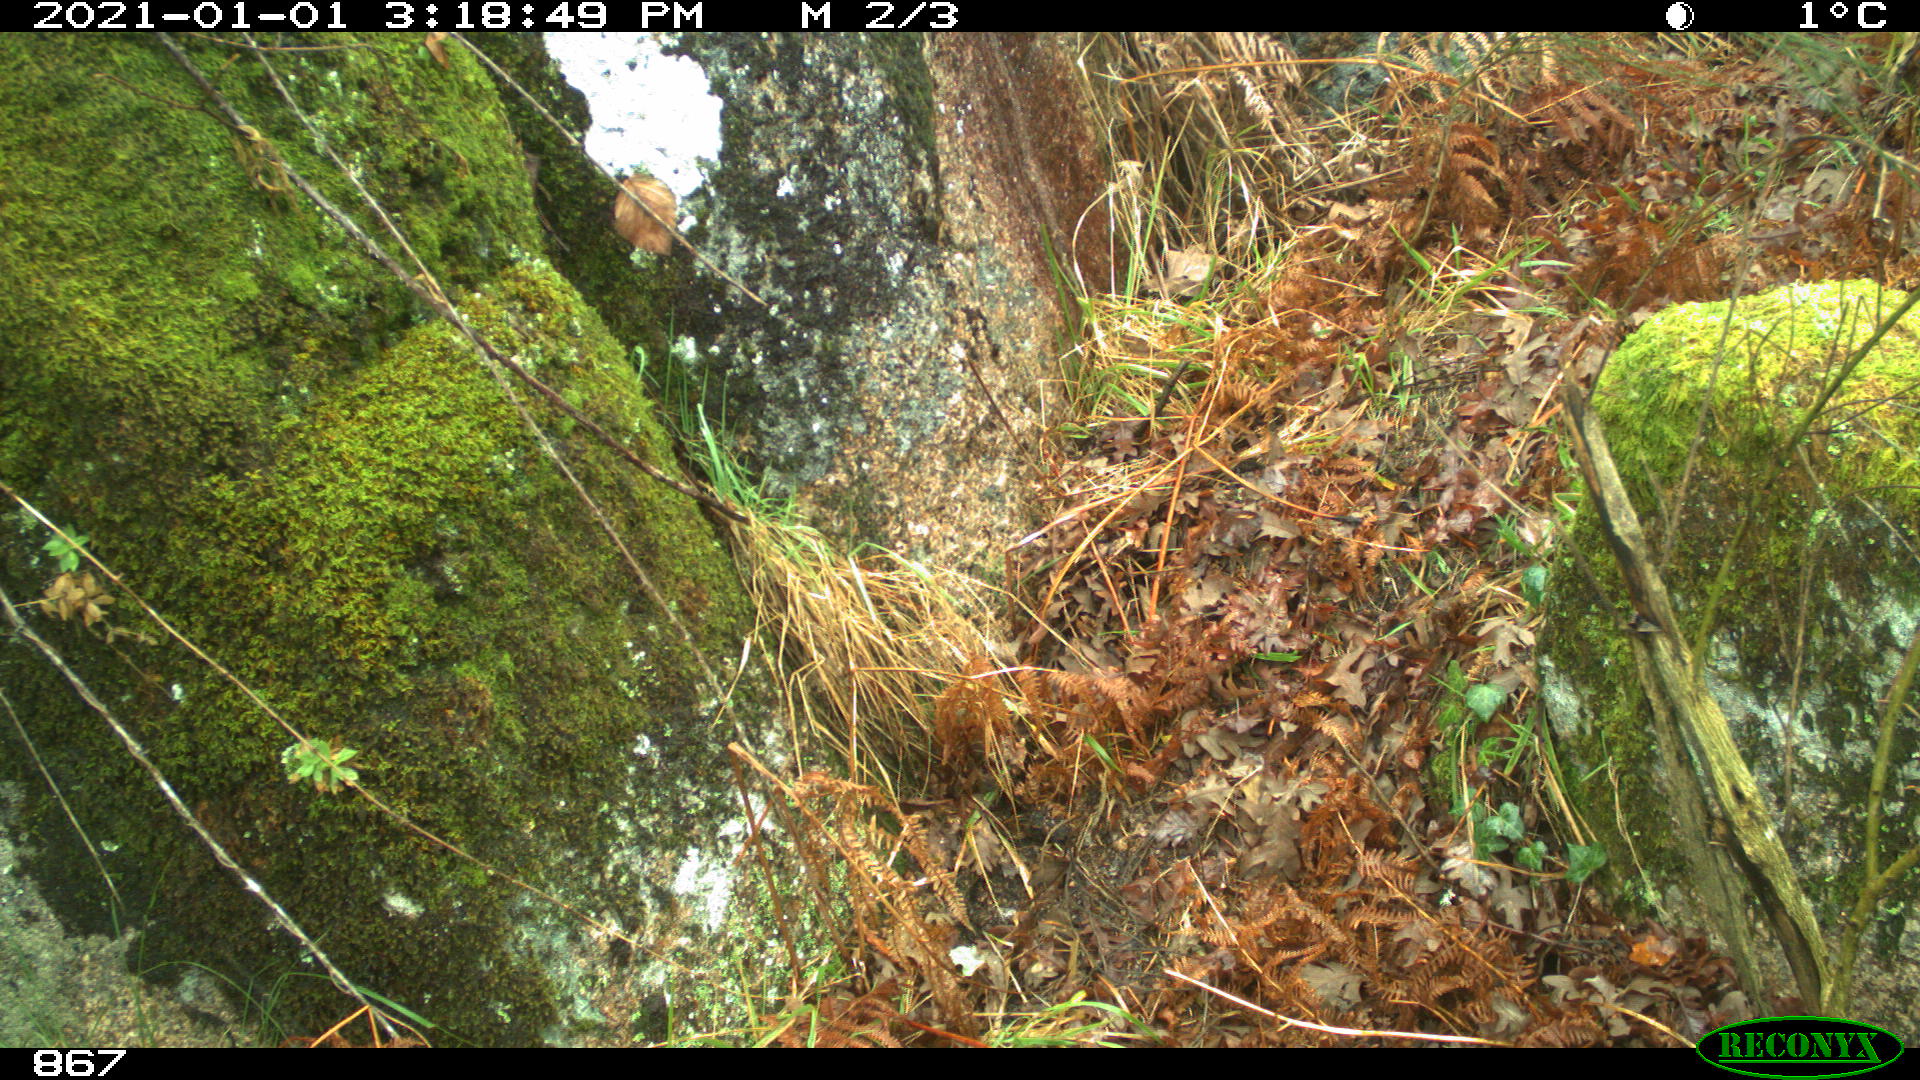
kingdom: Animalia
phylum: Chordata
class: Mammalia
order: Artiodactyla
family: Suidae
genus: Sus
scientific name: Sus scrofa
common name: Wild boar
